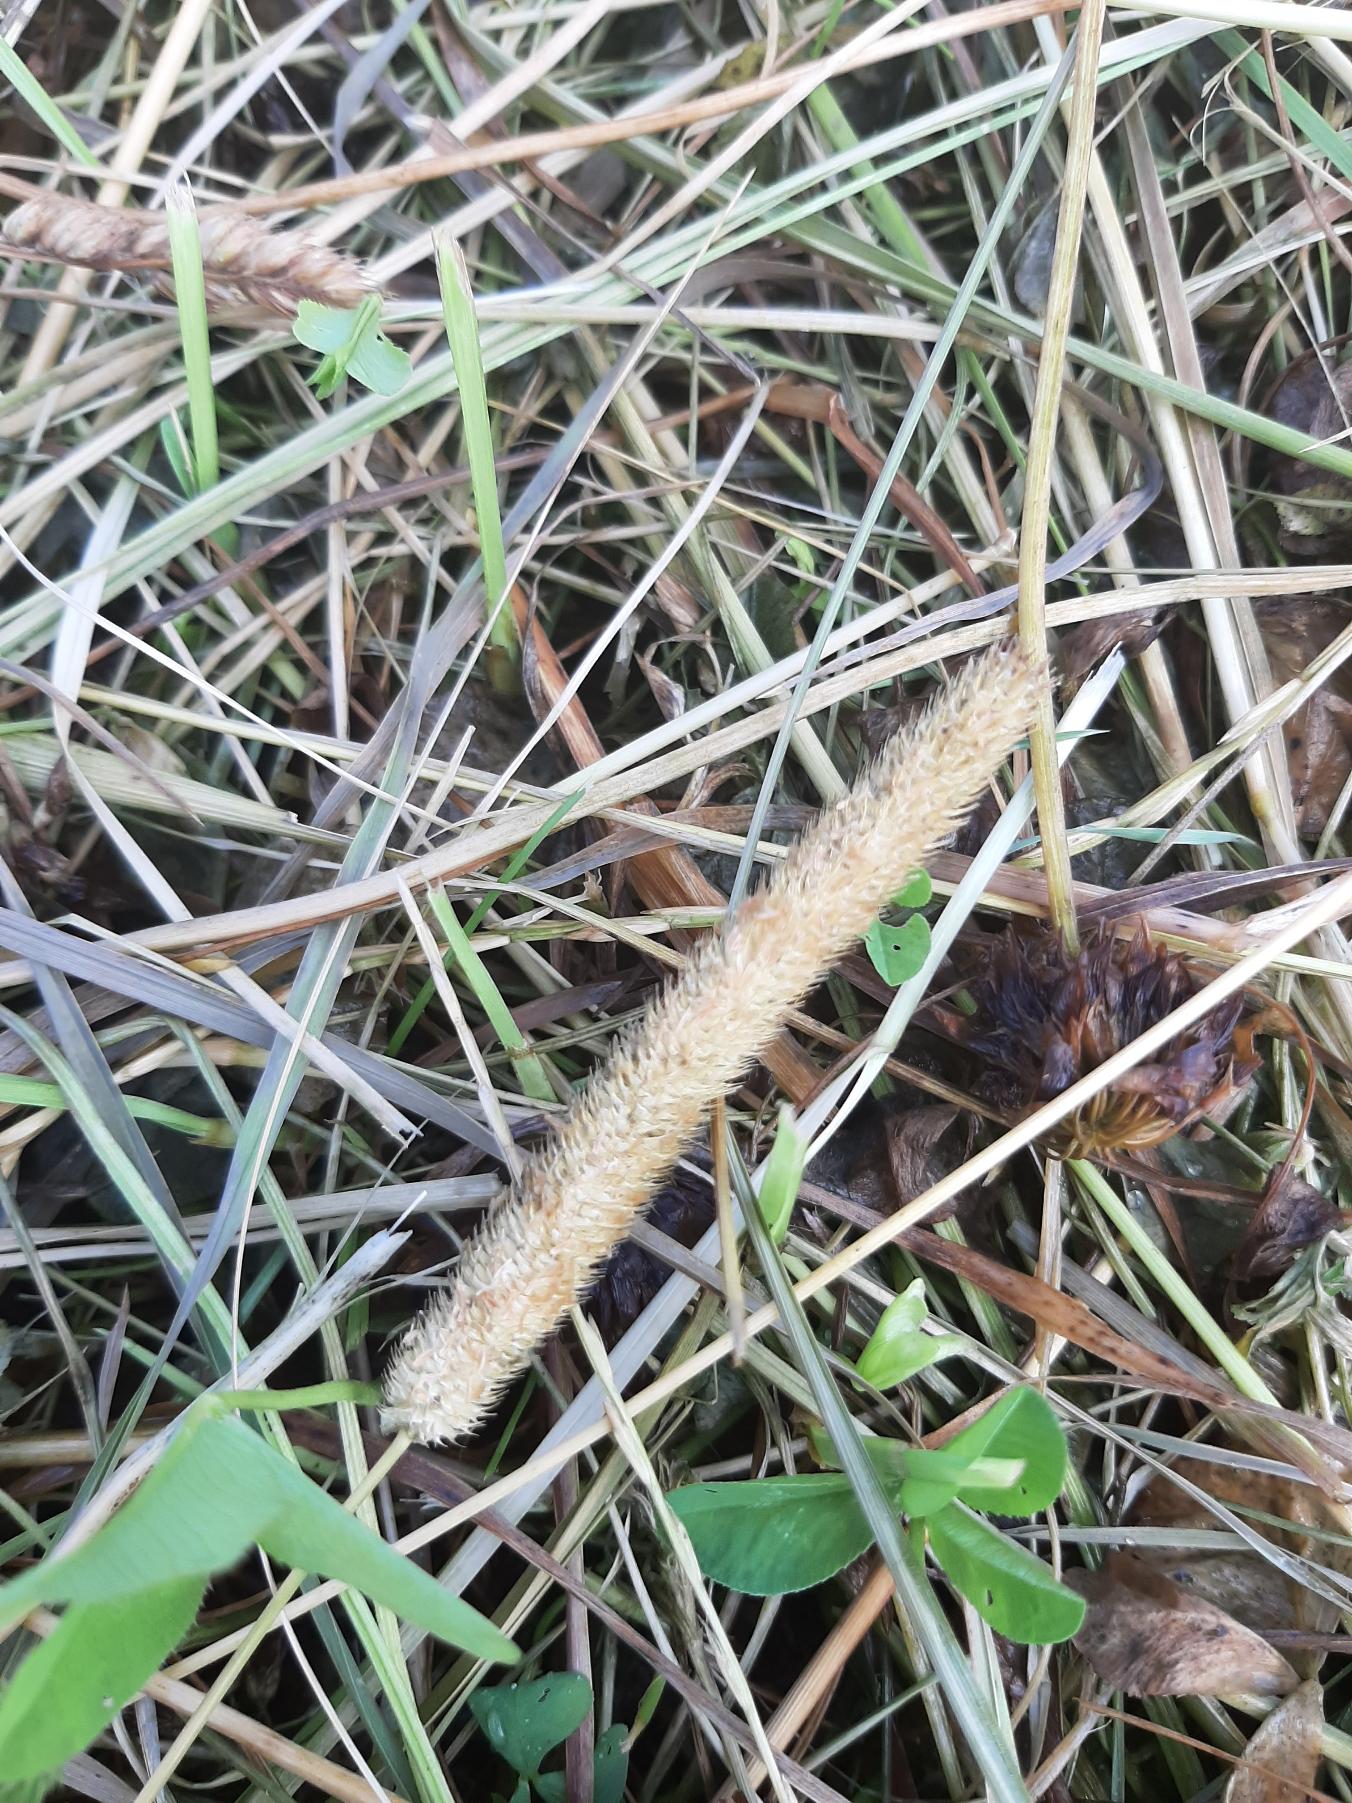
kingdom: Plantae
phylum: Tracheophyta
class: Liliopsida
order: Poales
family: Poaceae
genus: Phleum
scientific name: Phleum pratense
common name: Eng-rottehale
